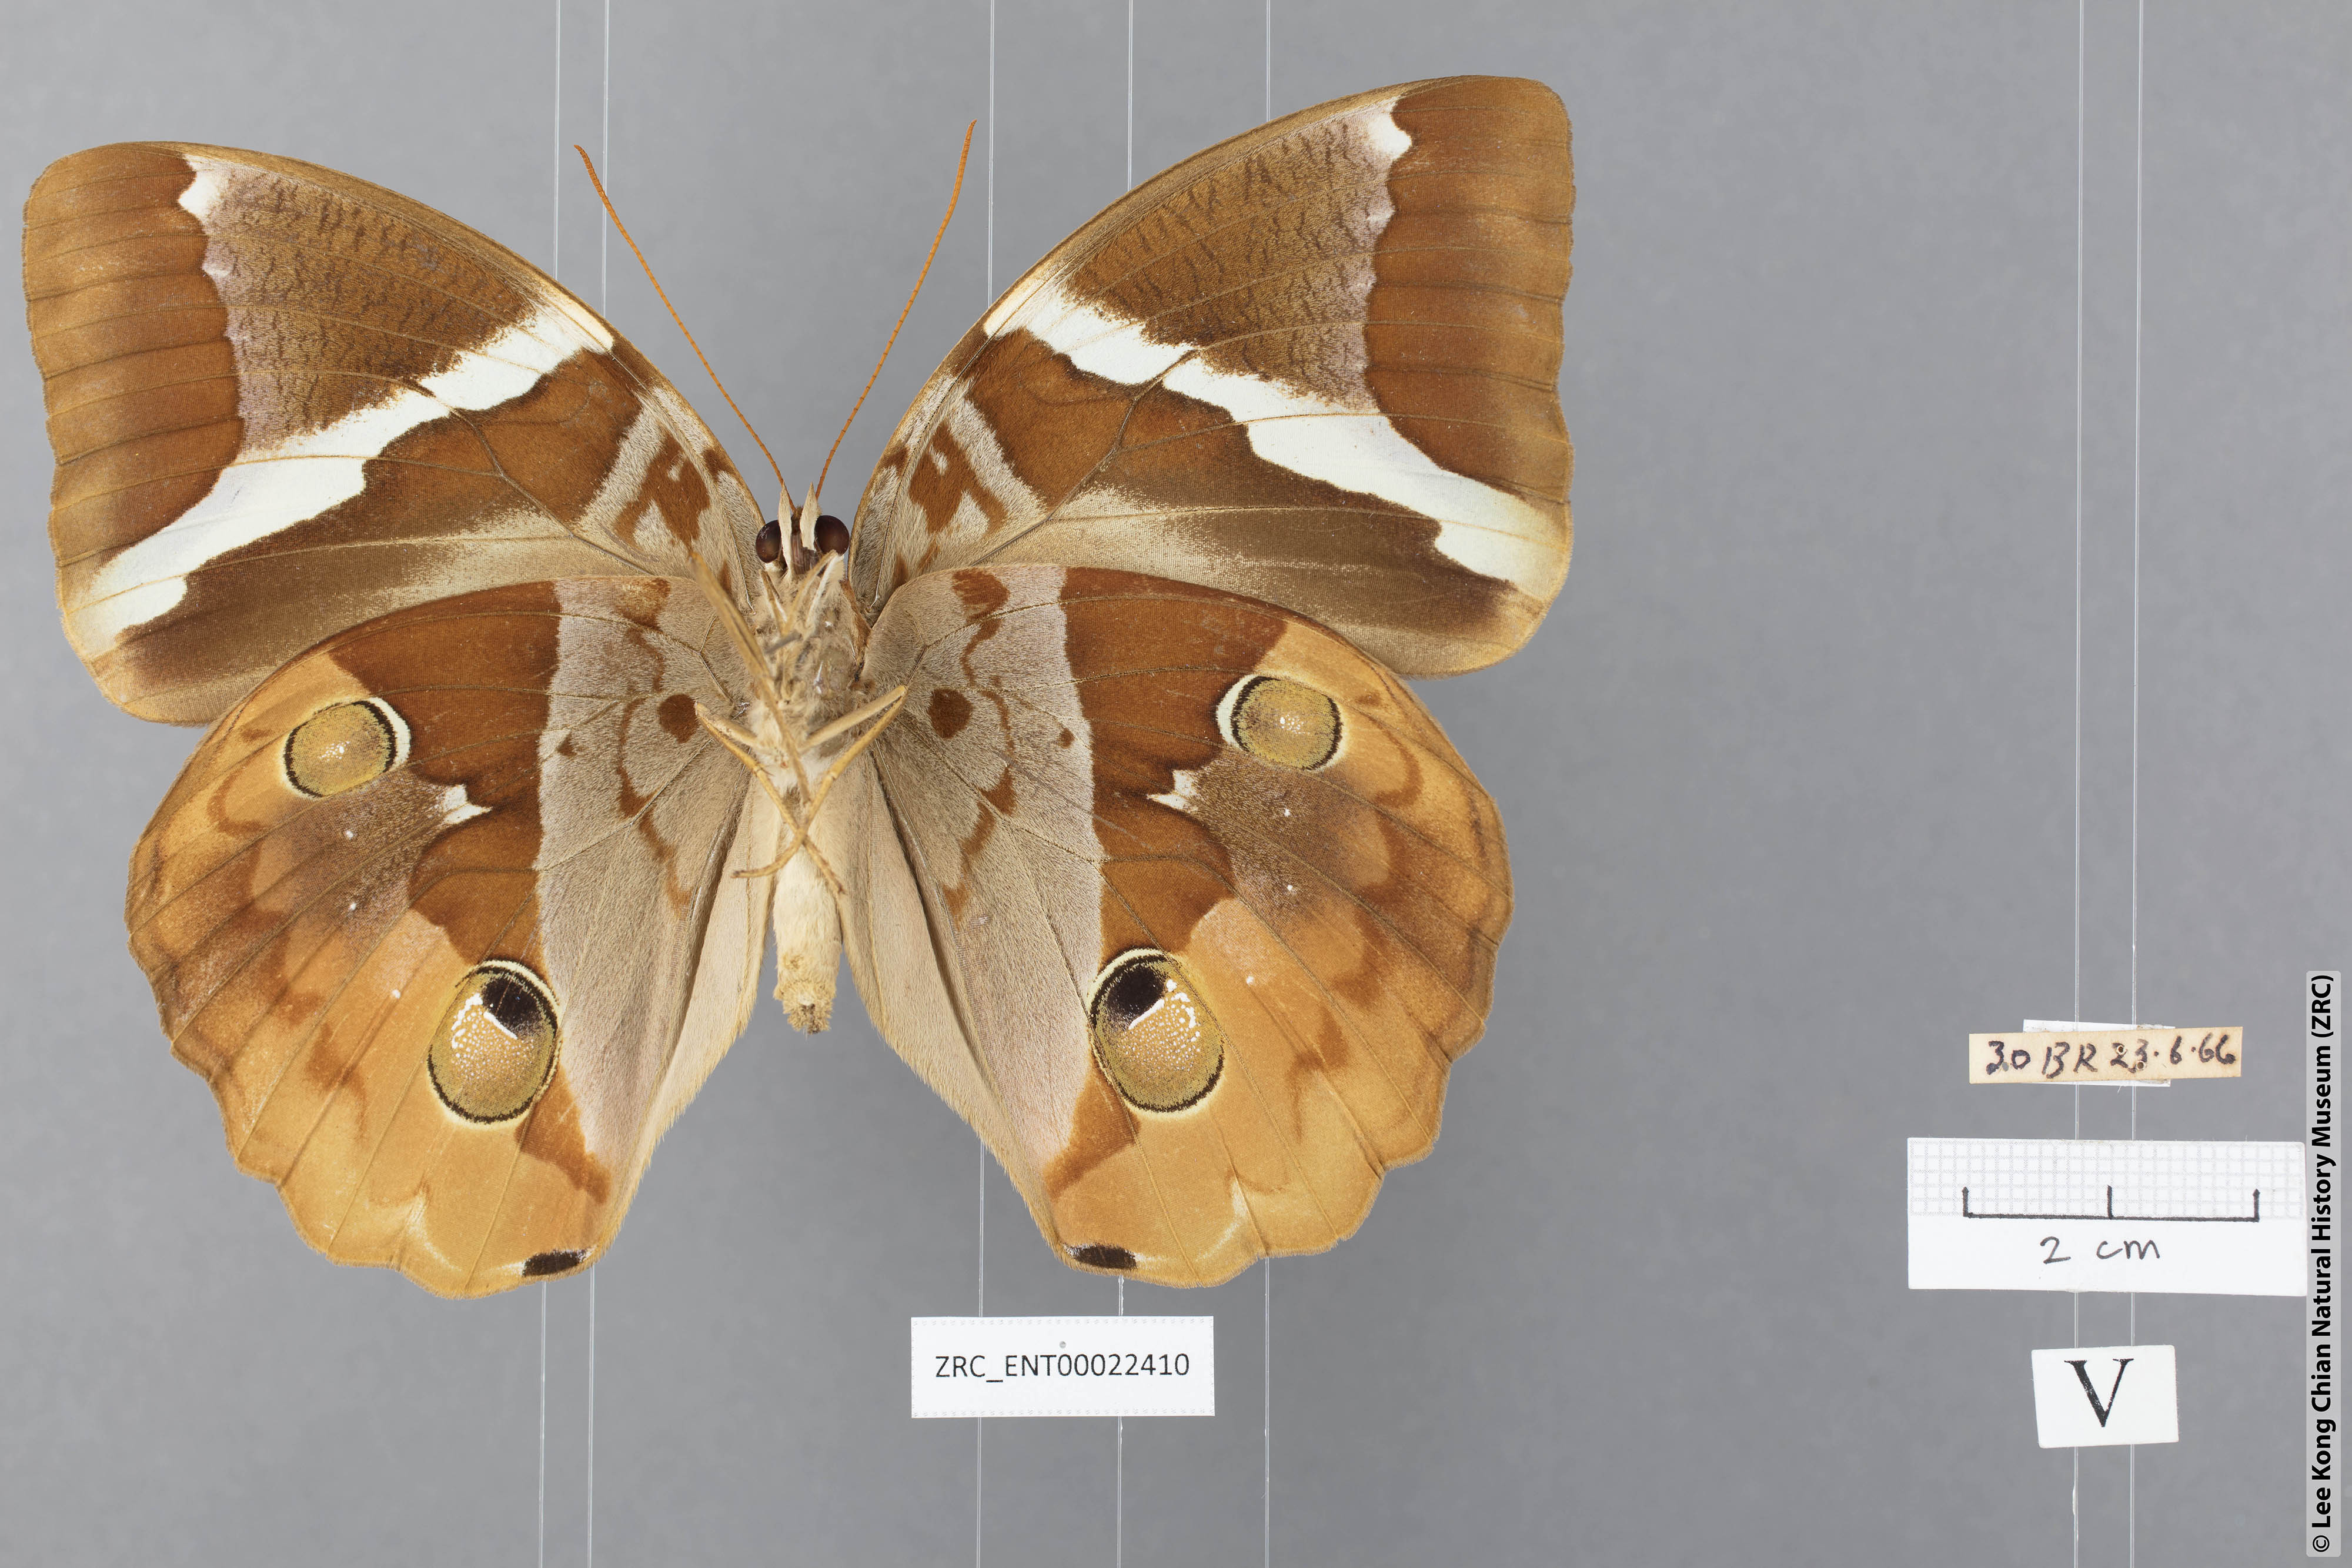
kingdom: Animalia
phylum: Arthropoda
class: Insecta
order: Lepidoptera
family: Nymphalidae
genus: Thauria
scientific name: Thauria aliris
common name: Tufted jungle king
